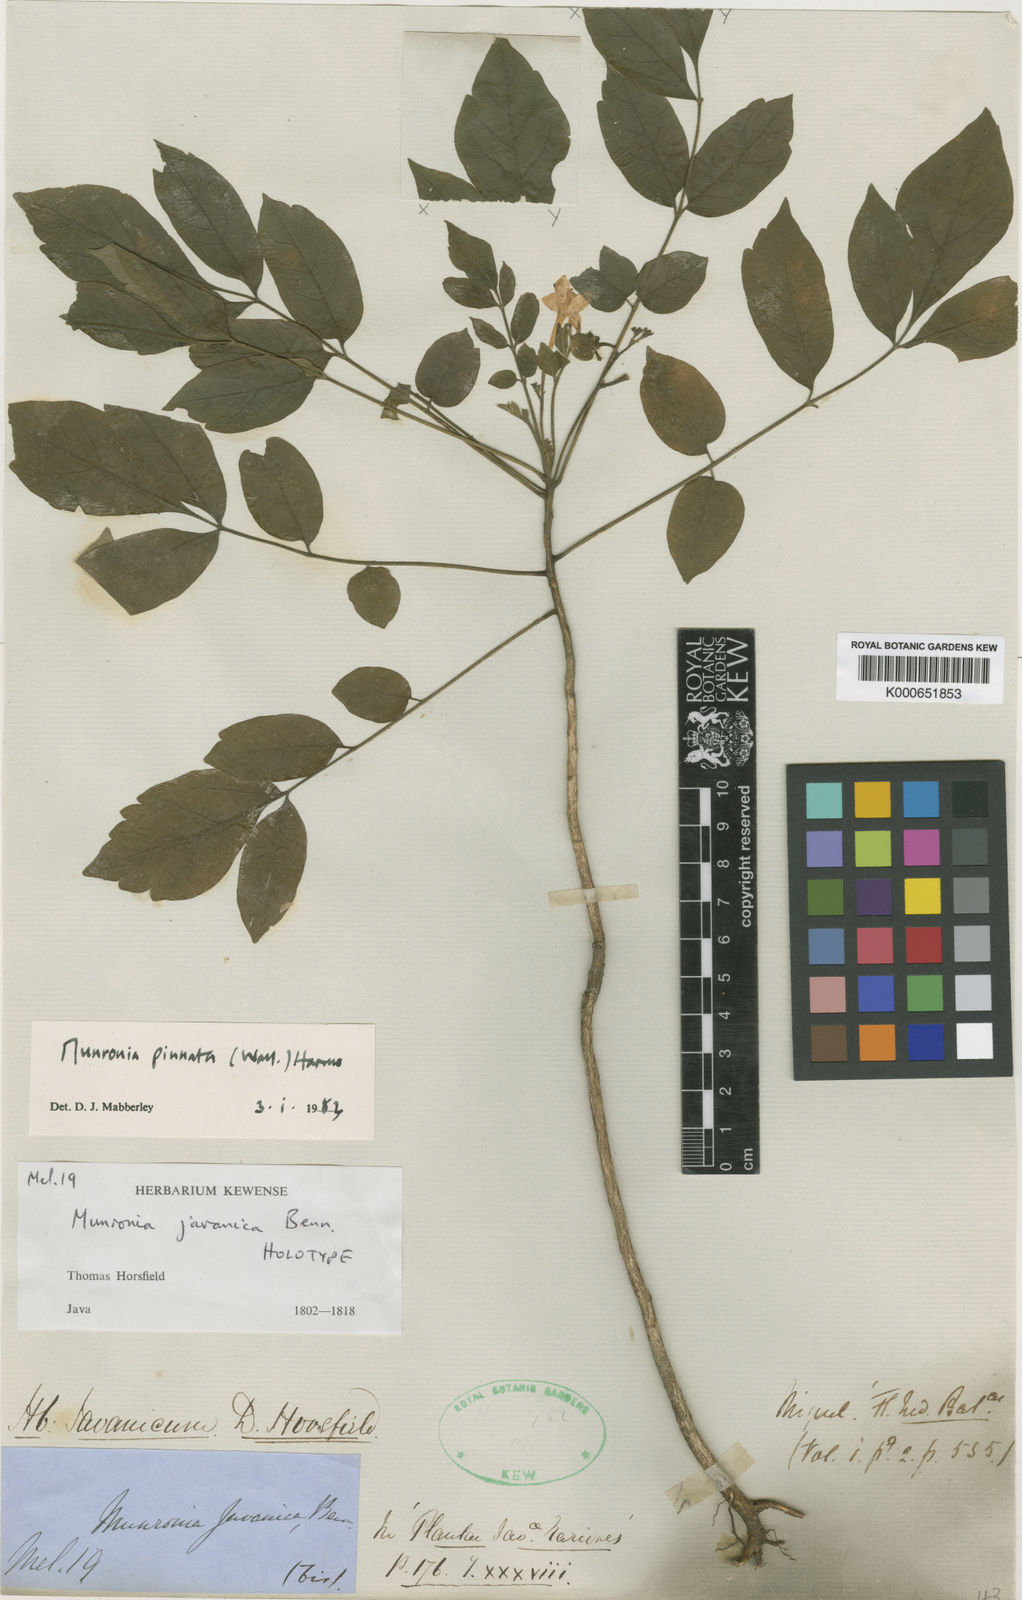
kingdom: Plantae
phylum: Tracheophyta
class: Magnoliopsida
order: Sapindales
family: Meliaceae
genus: Munronia
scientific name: Munronia pinnata
